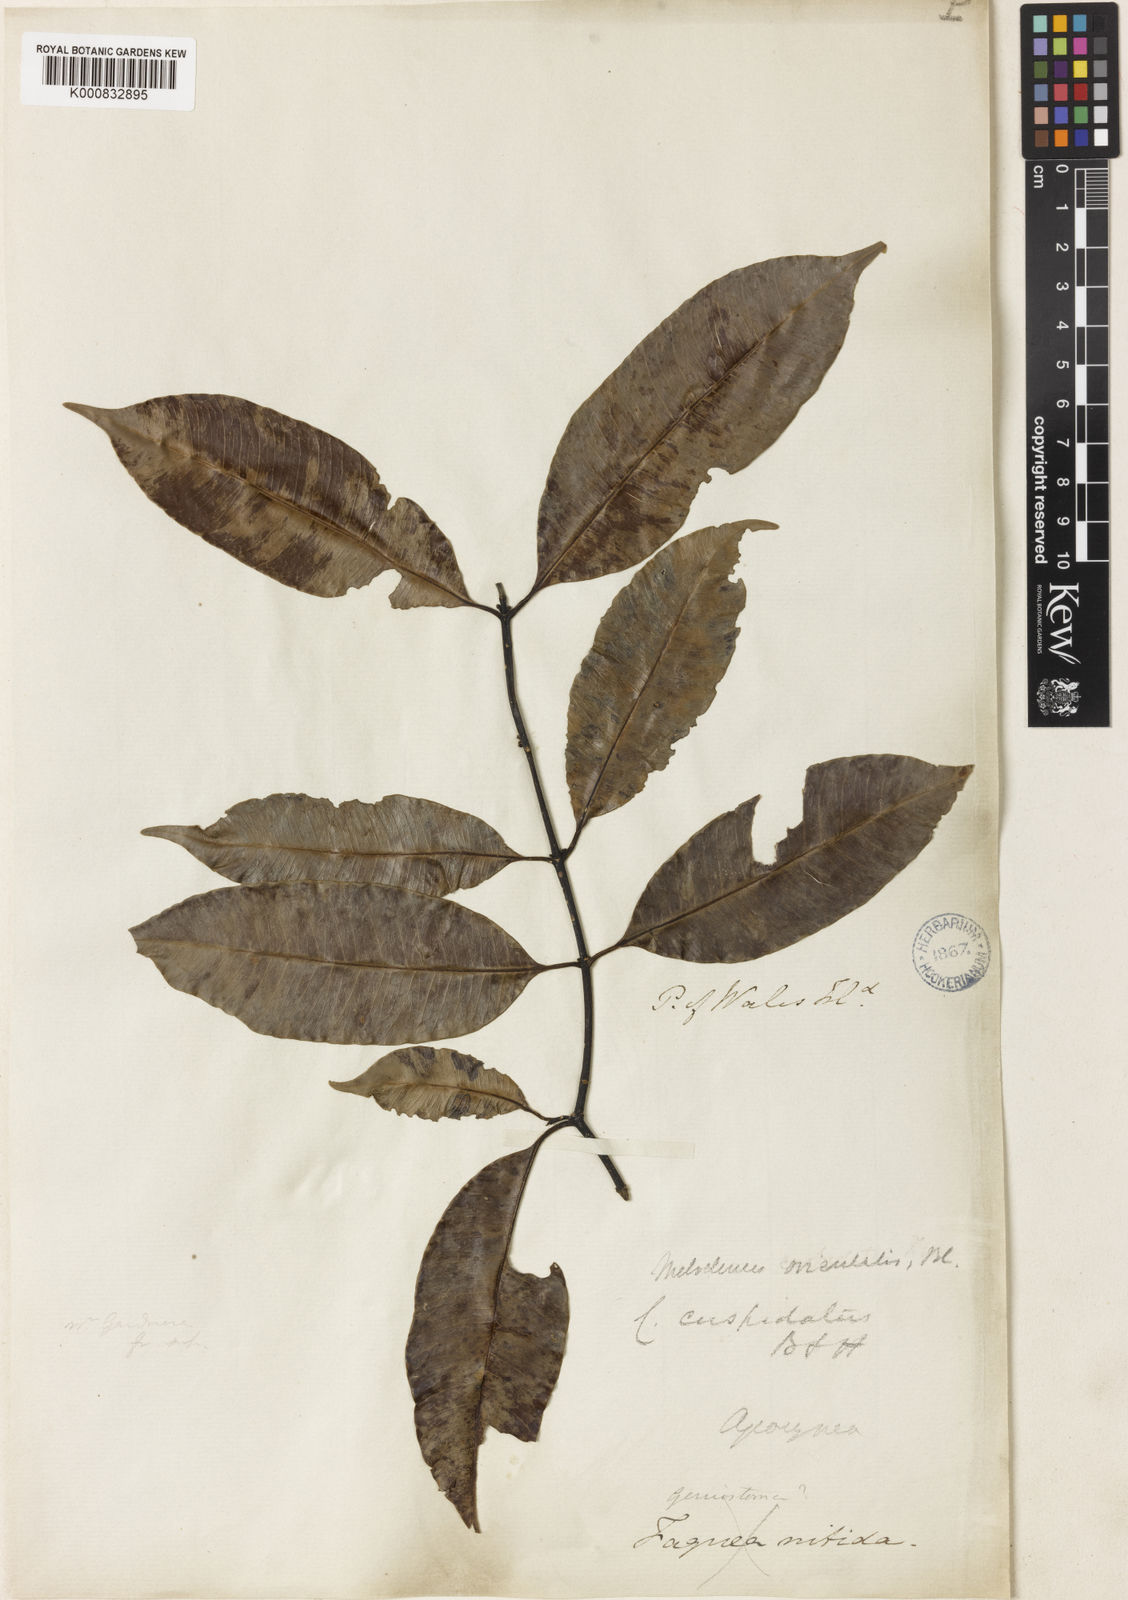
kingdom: Plantae
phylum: Tracheophyta
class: Magnoliopsida
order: Gentianales
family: Apocynaceae
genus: Melodinus
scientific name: Melodinus orientalis
